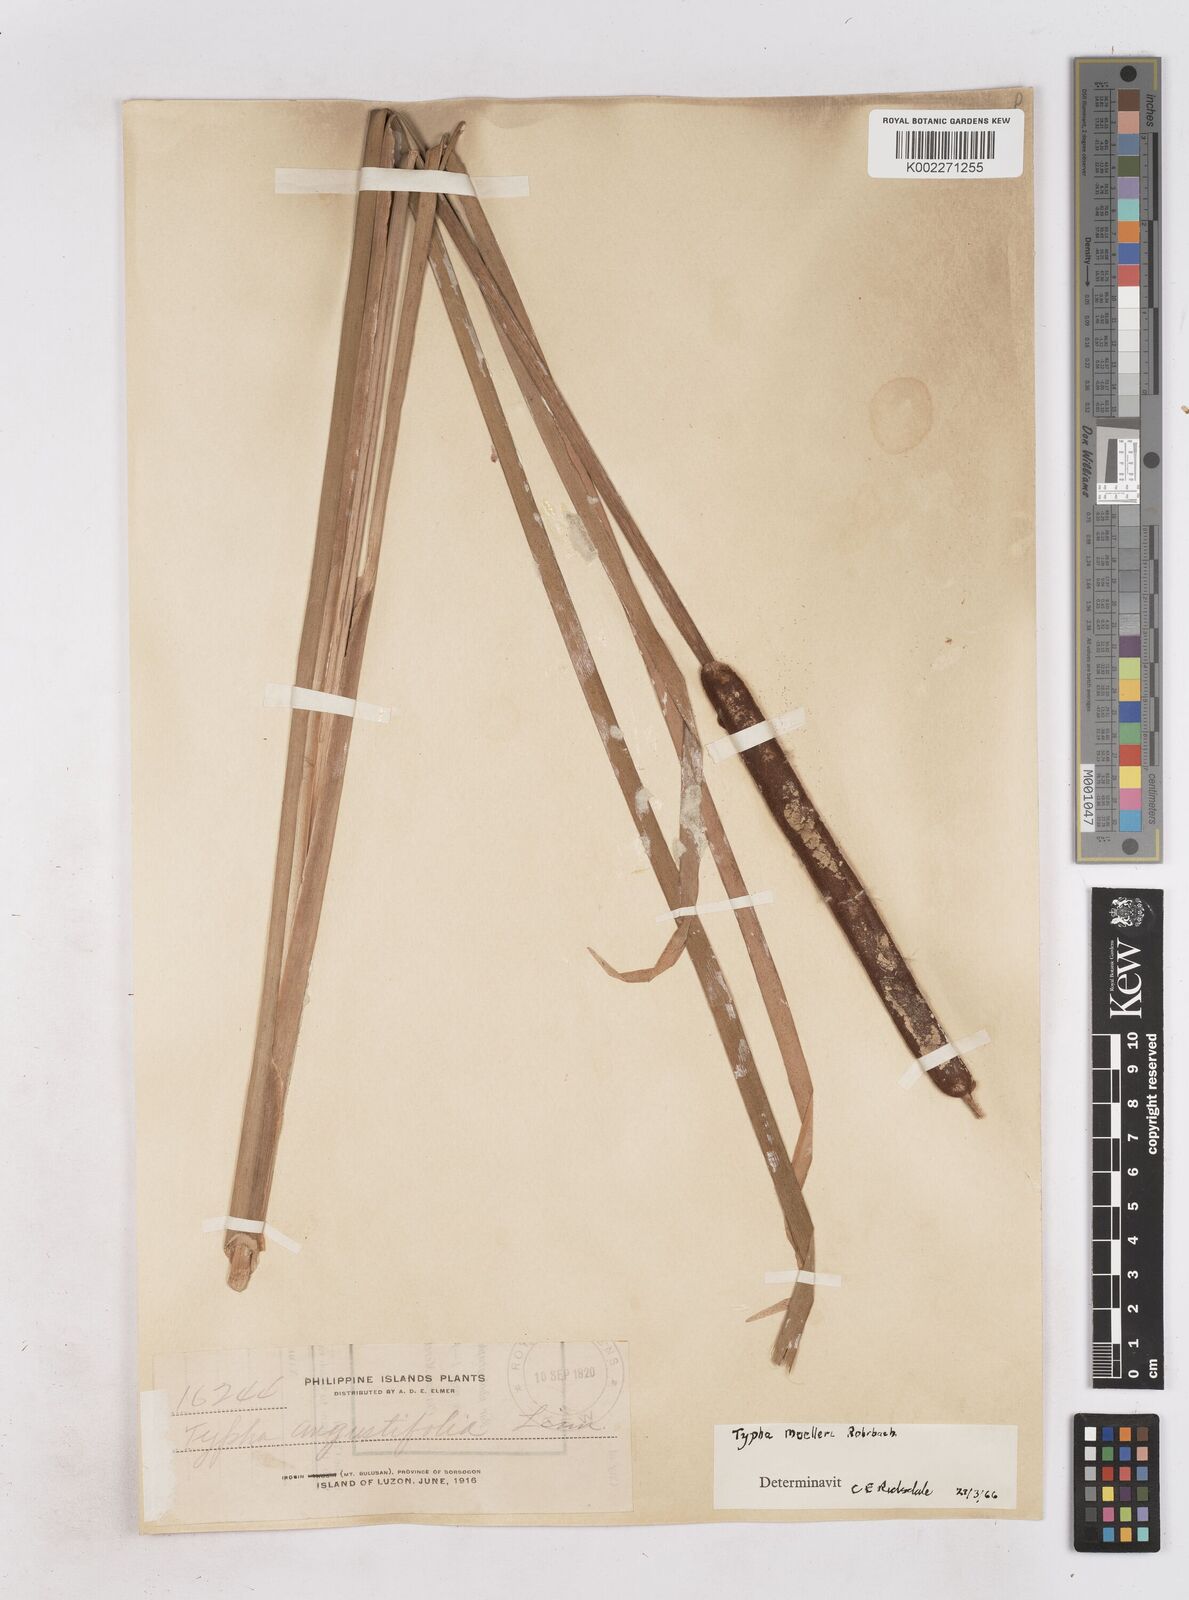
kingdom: Plantae
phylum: Tracheophyta
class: Liliopsida
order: Poales
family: Typhaceae
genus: Typha
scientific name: Typha orientalis
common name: Bullrush
